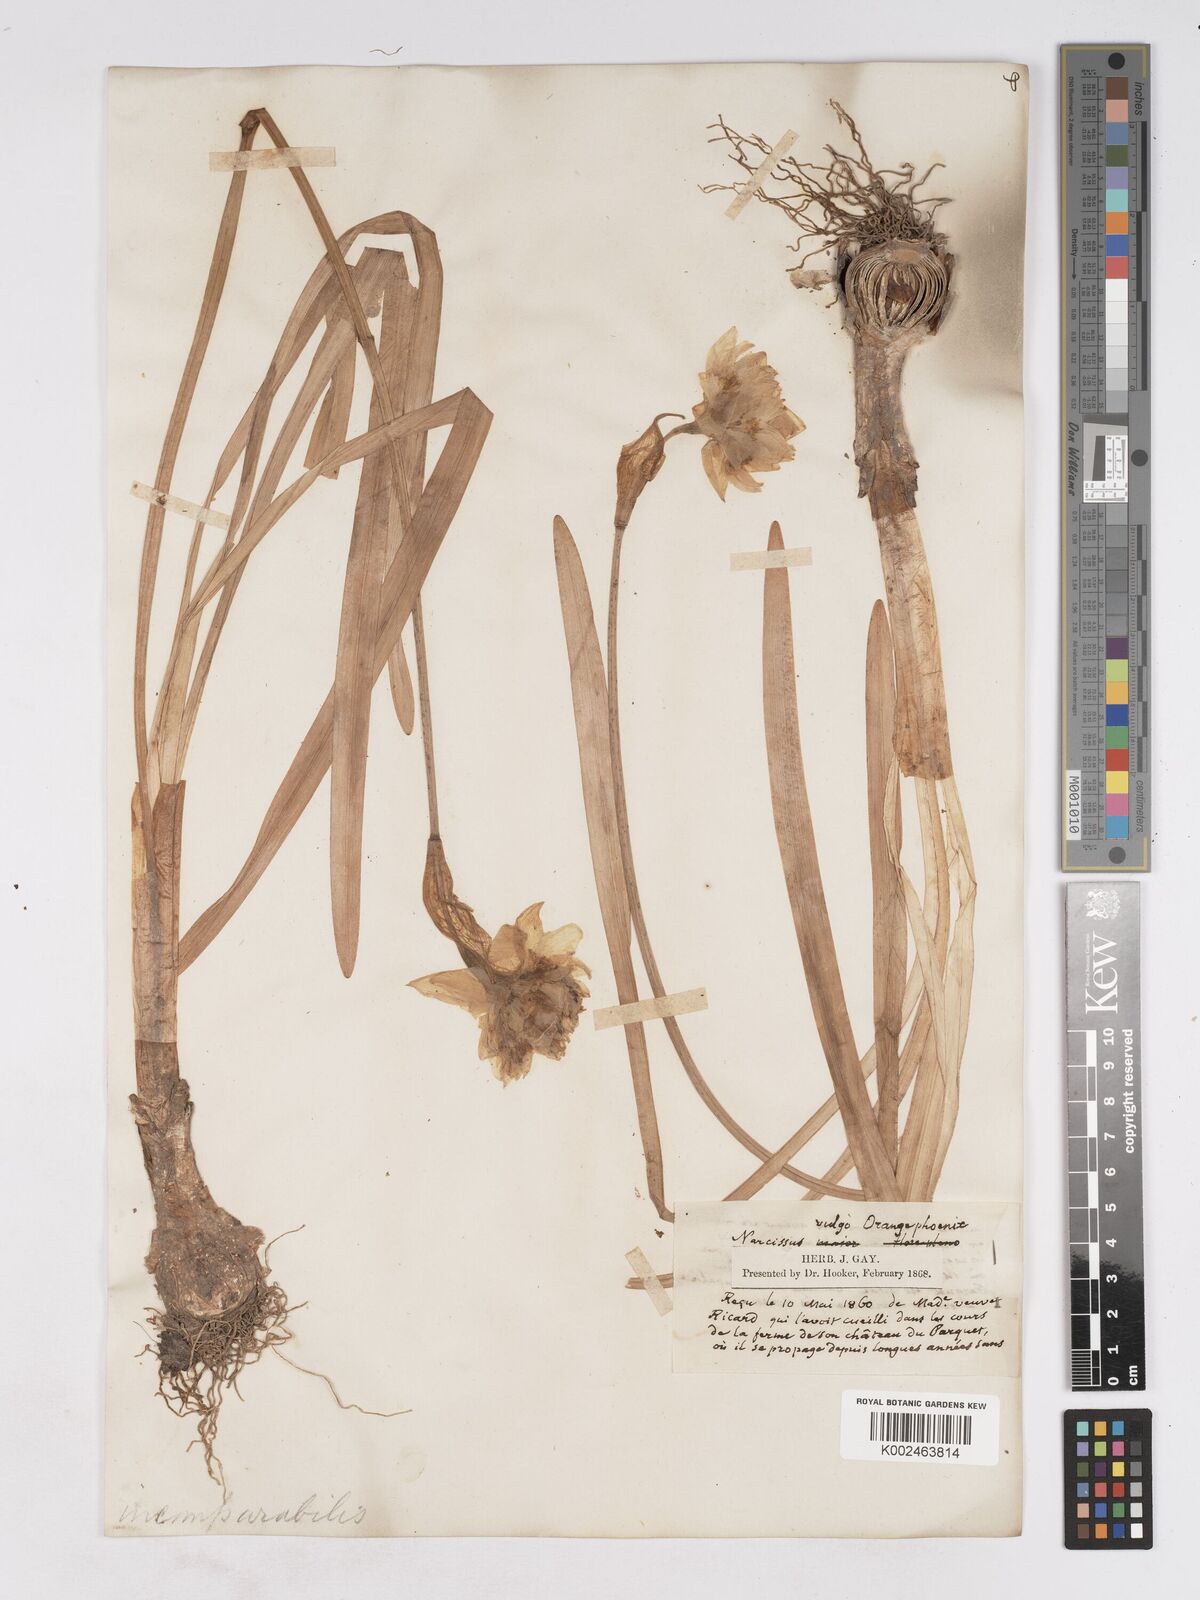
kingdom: Plantae
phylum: Tracheophyta
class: Liliopsida
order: Asparagales
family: Amaryllidaceae
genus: Narcissus
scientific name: Narcissus incomparabilis
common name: Nonesuch daffodil
